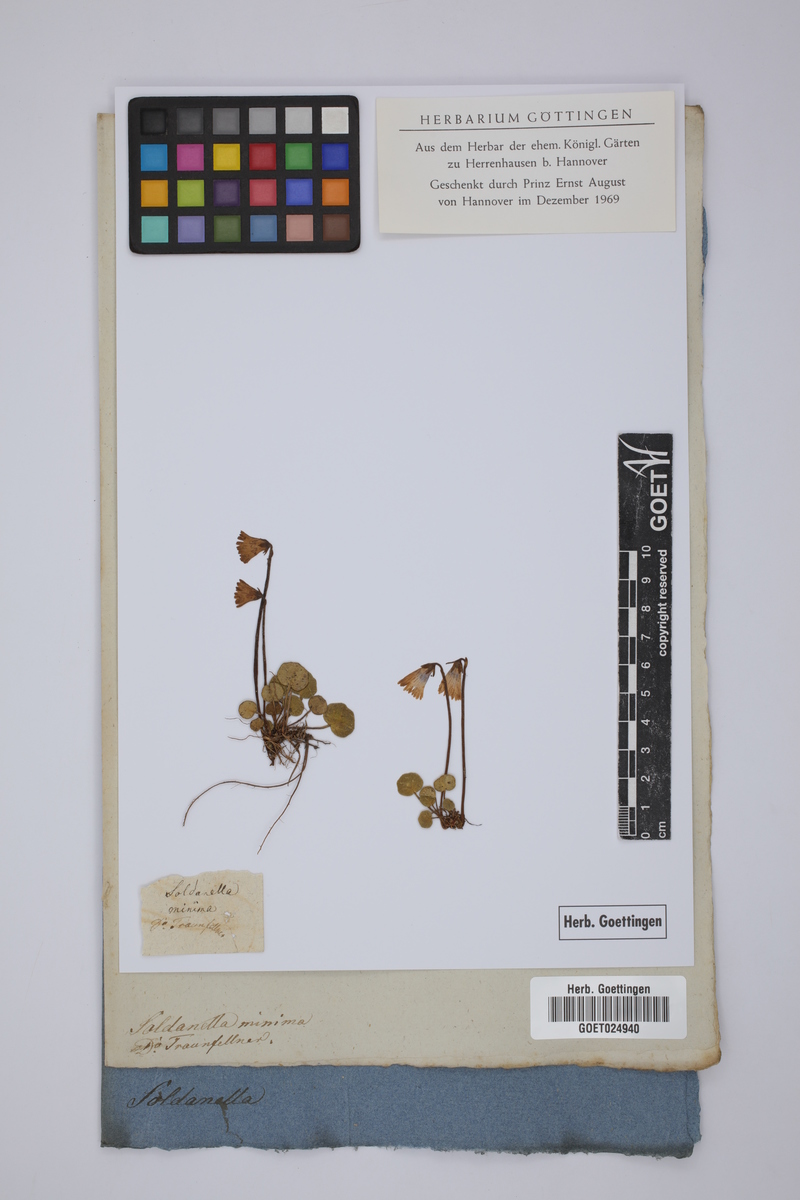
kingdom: Plantae
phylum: Tracheophyta
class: Magnoliopsida
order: Ericales
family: Primulaceae
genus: Soldanella
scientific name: Soldanella minima
